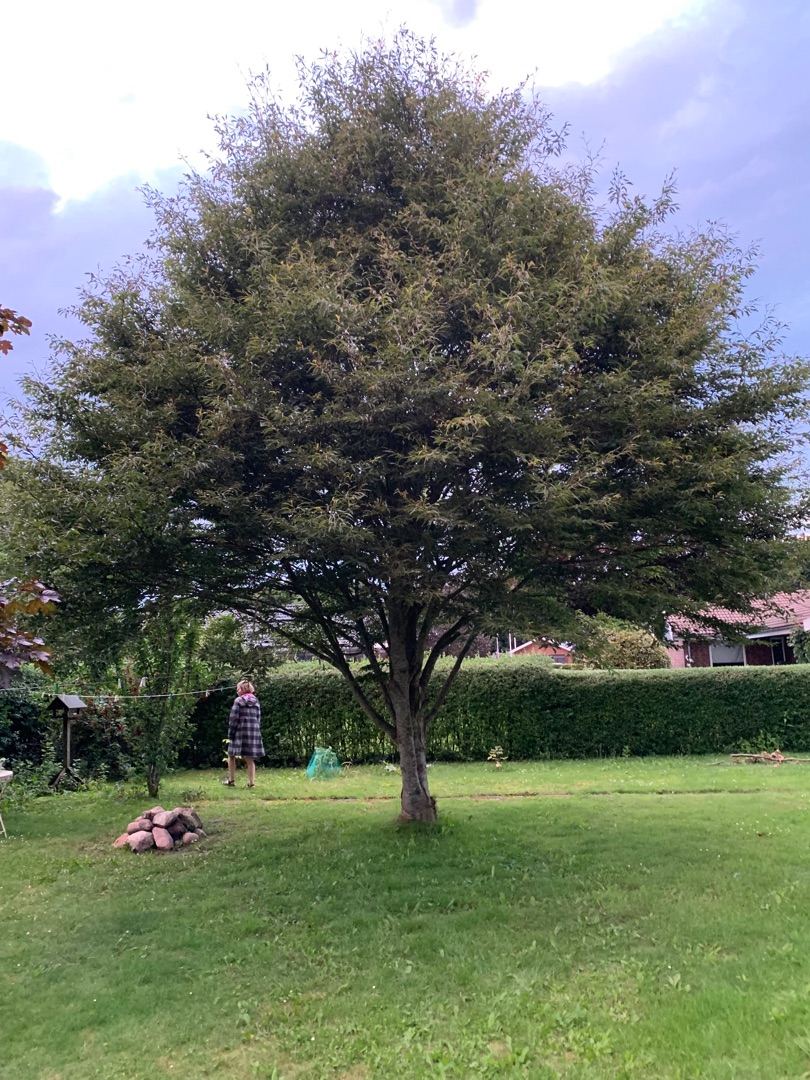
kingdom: Plantae
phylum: Tracheophyta
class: Magnoliopsida
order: Fagales
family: Fagaceae
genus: Fagus
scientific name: Fagus sylvatica
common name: Bøg
